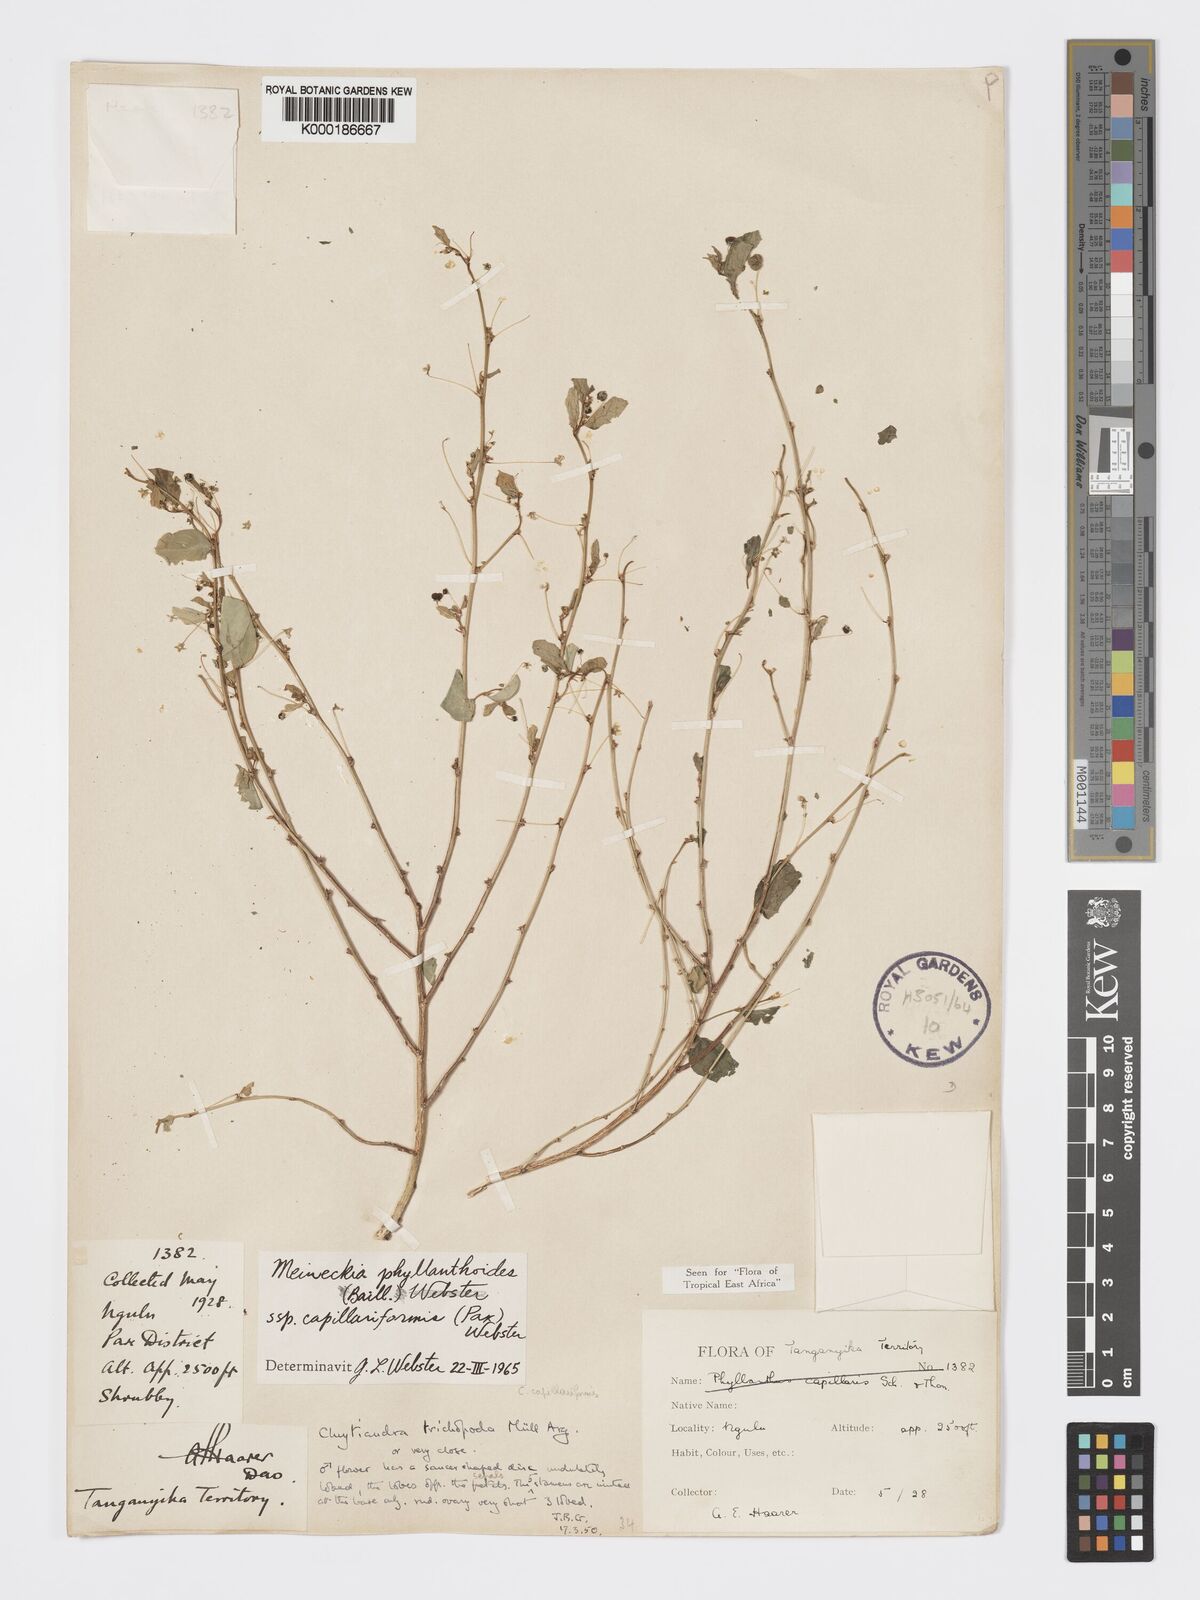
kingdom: Plantae
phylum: Tracheophyta
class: Magnoliopsida
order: Malpighiales
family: Phyllanthaceae
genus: Meineckia
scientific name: Meineckia phyllanthoides
